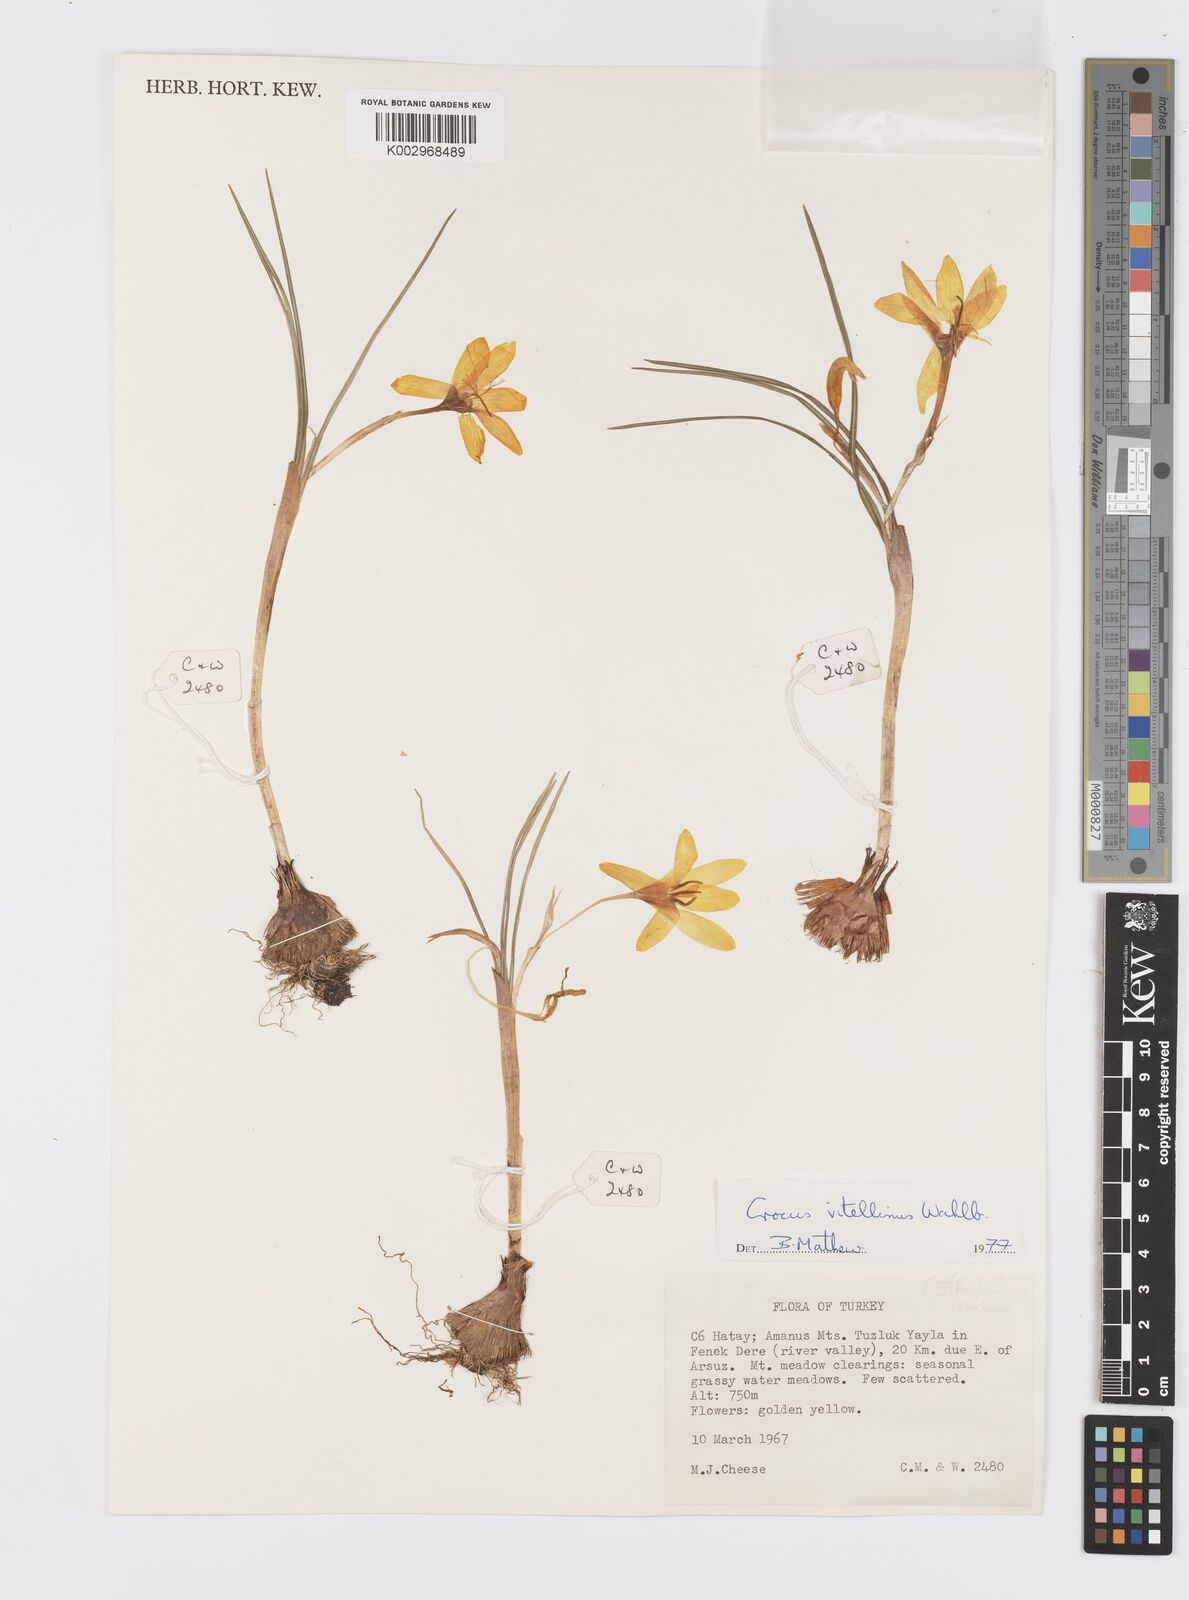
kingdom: Plantae
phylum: Tracheophyta
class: Liliopsida
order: Asparagales
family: Iridaceae
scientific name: Iridaceae
